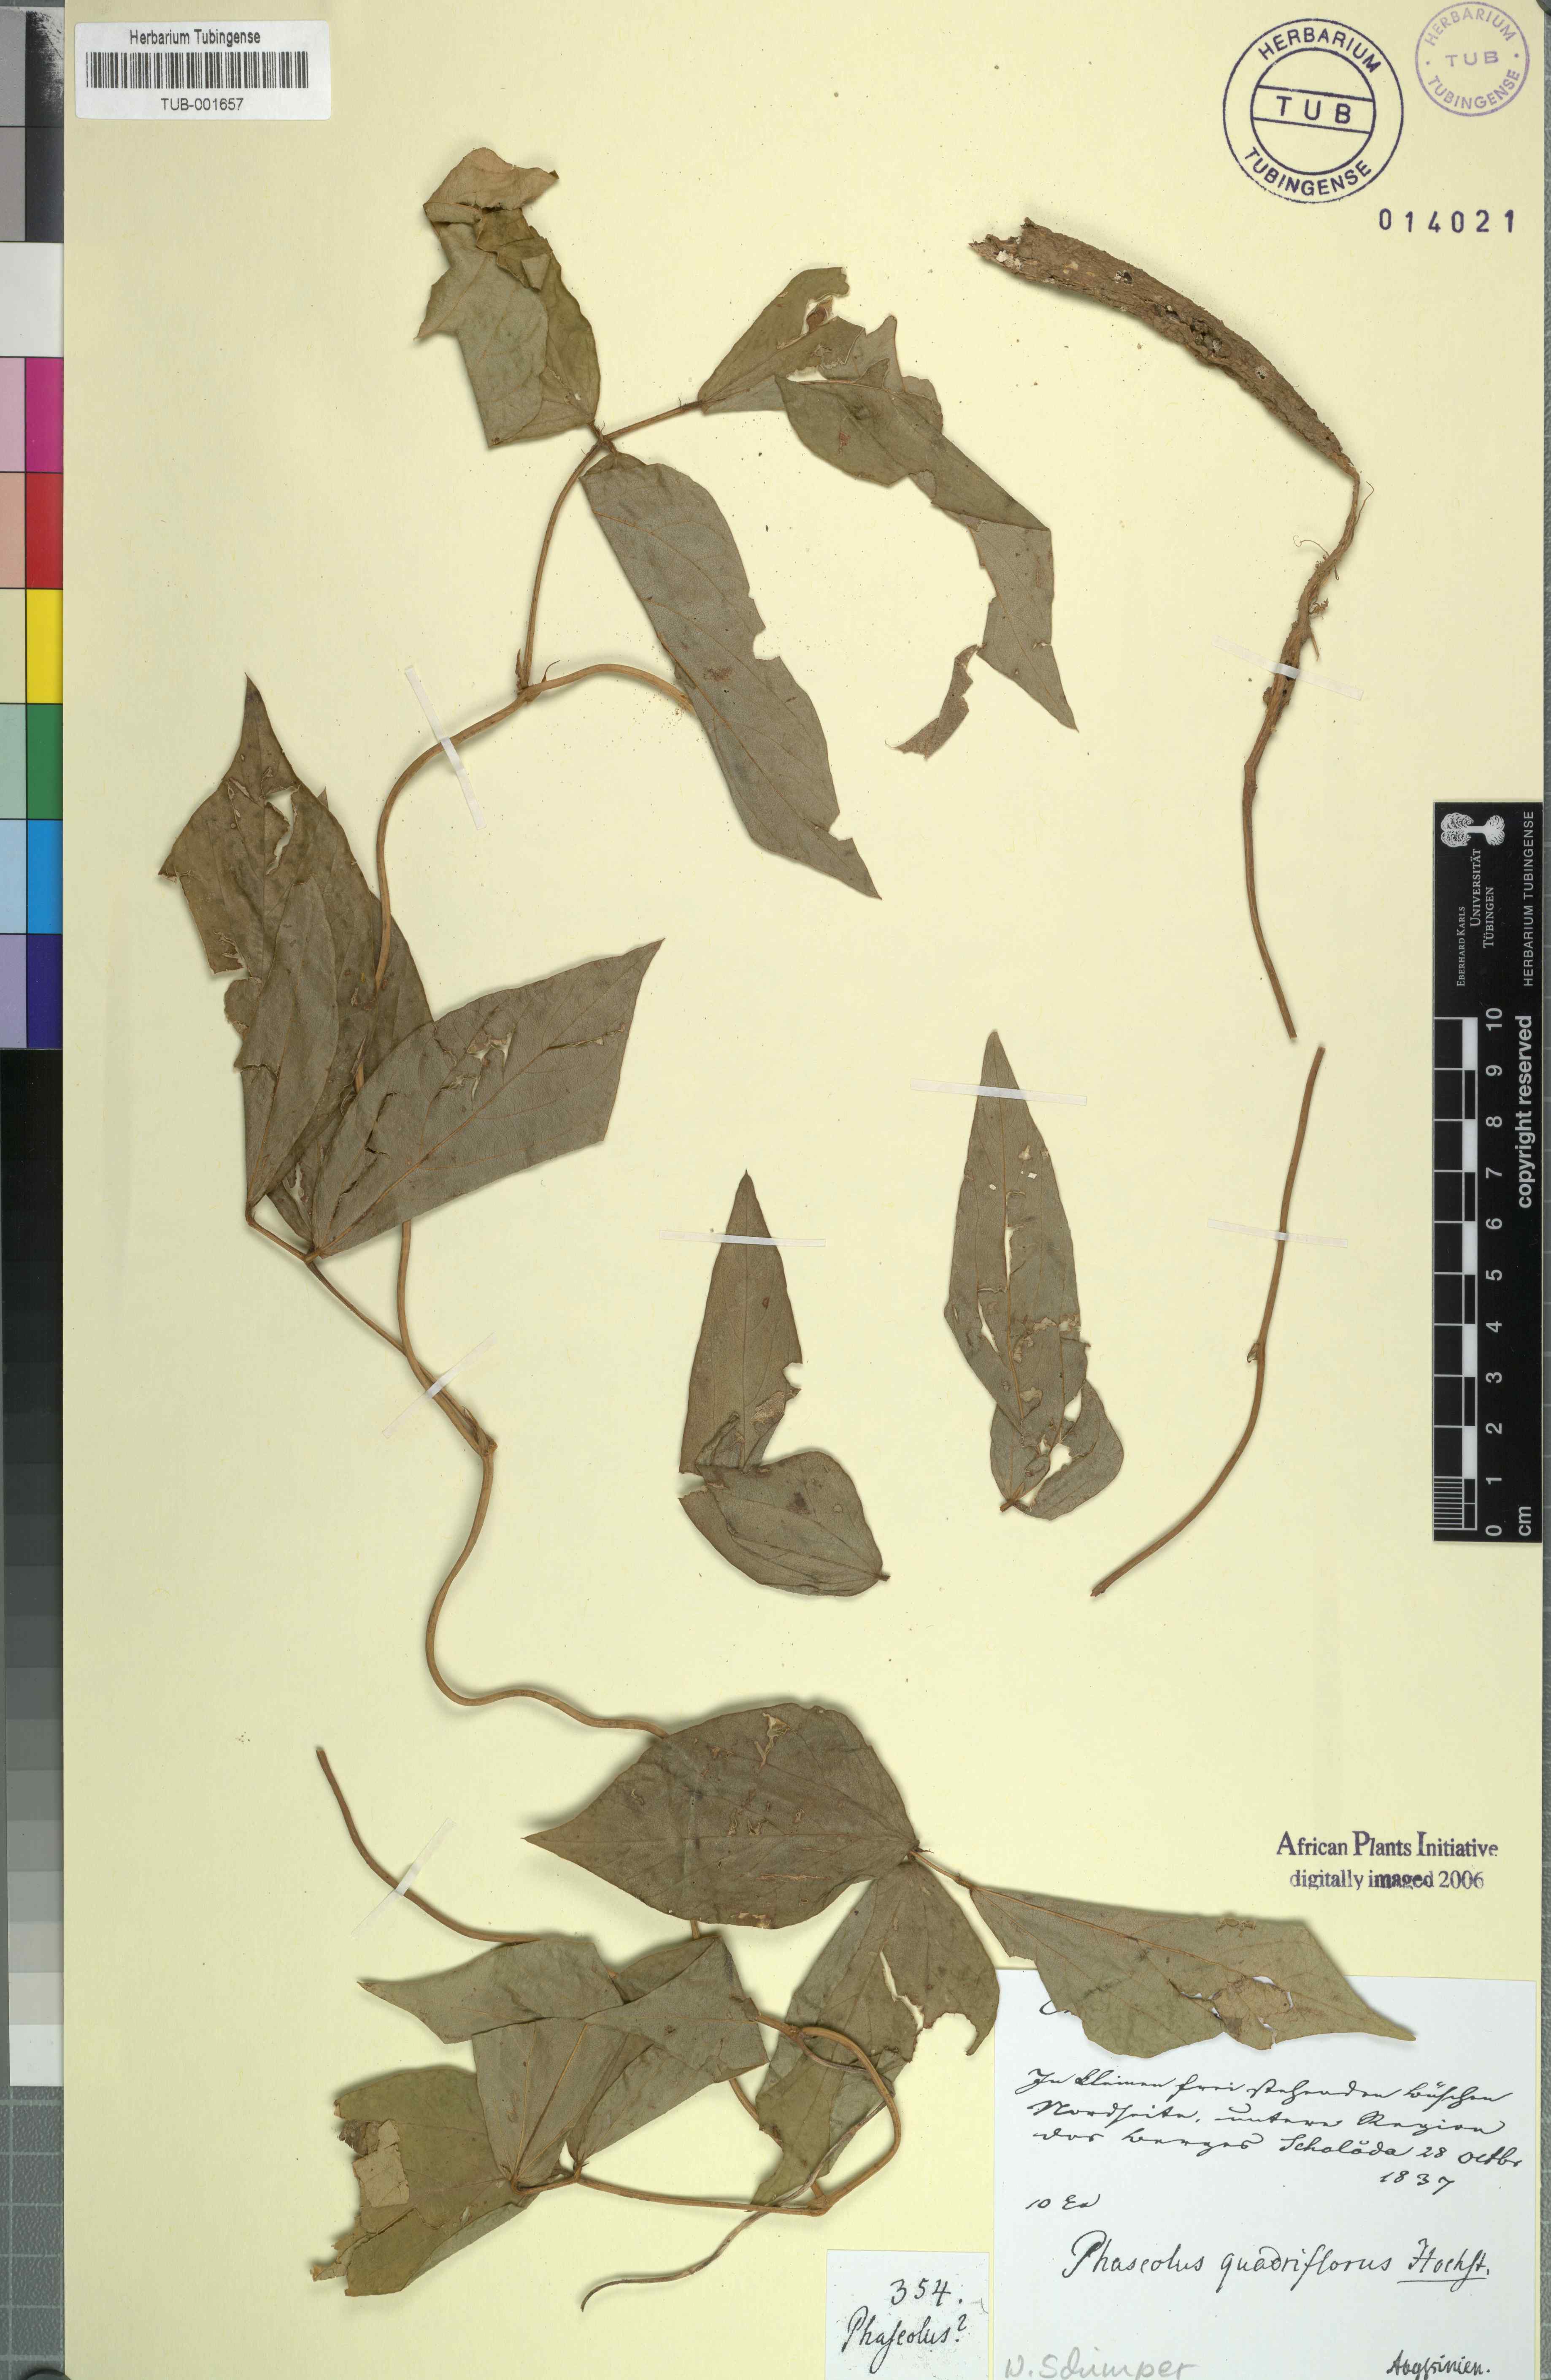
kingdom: Plantae
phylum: Tracheophyta
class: Magnoliopsida
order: Fabales
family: Fabaceae
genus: Vigna
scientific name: Vigna vexillata
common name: Zombi pea
